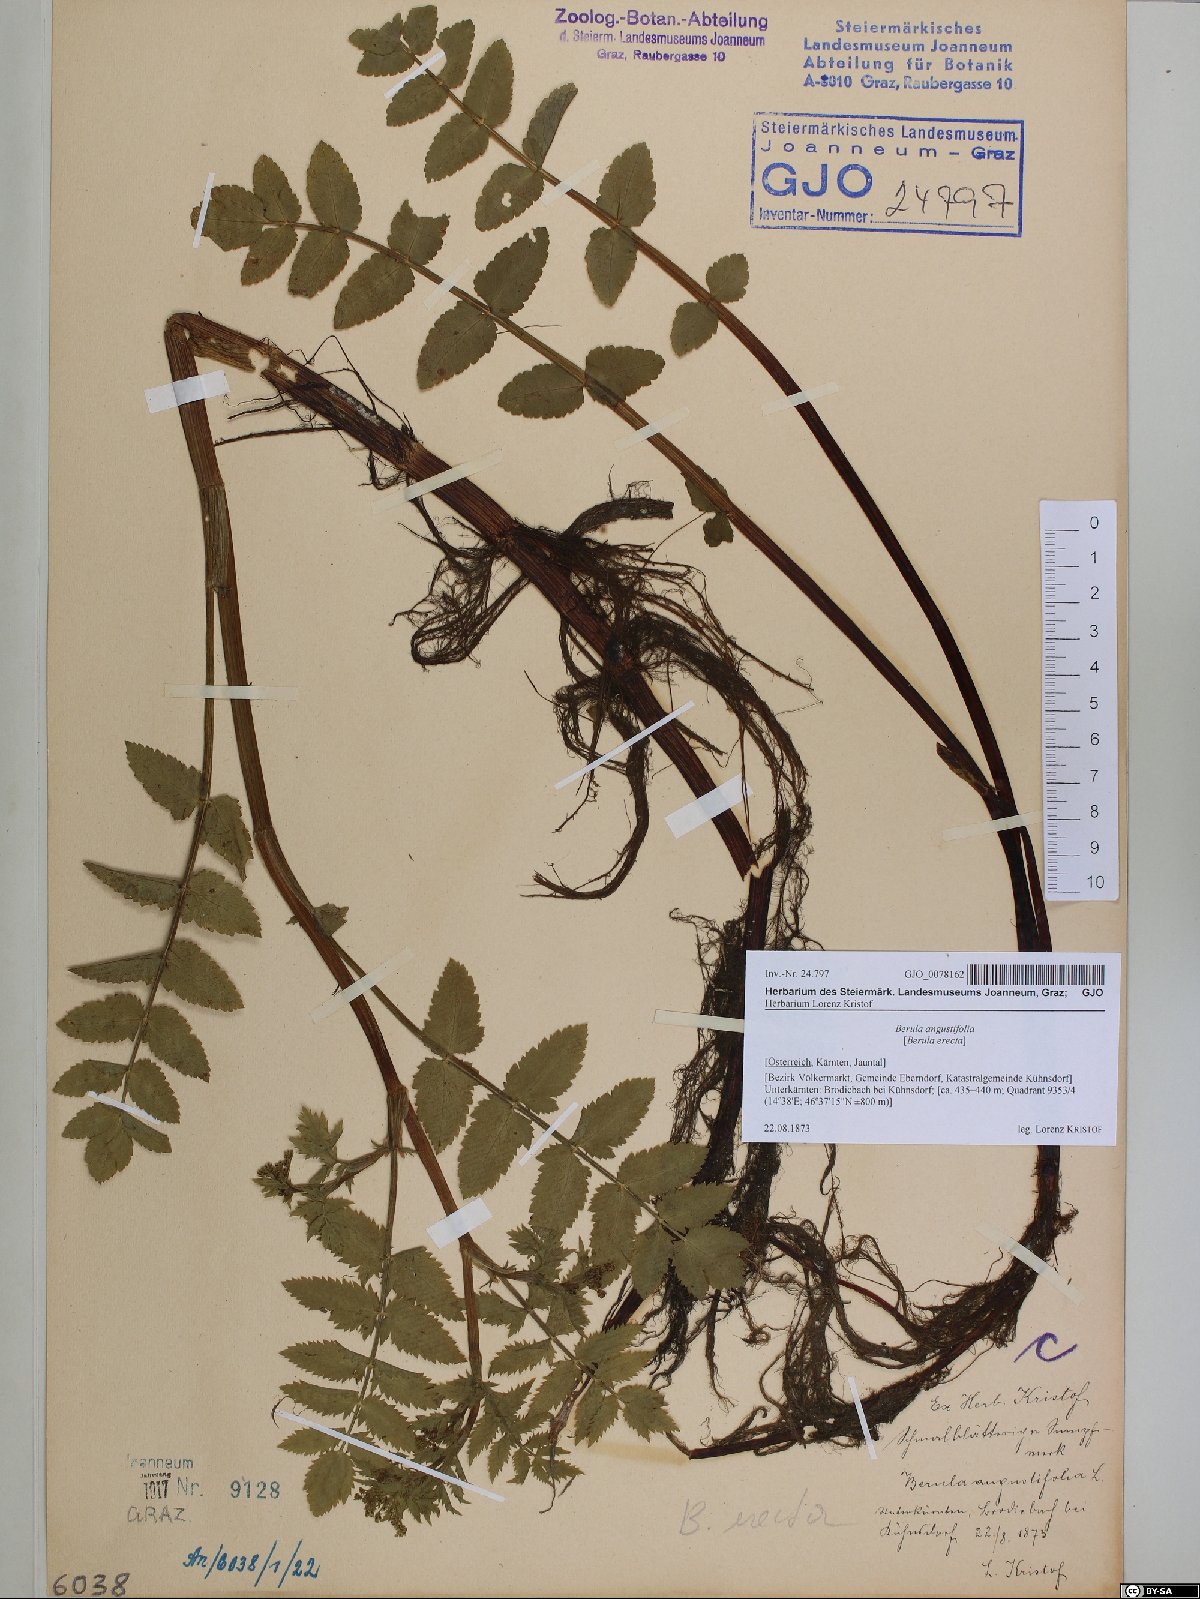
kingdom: Plantae
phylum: Tracheophyta
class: Magnoliopsida
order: Apiales
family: Apiaceae
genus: Berula
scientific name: Berula erecta
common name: Lesser water-parsnip
